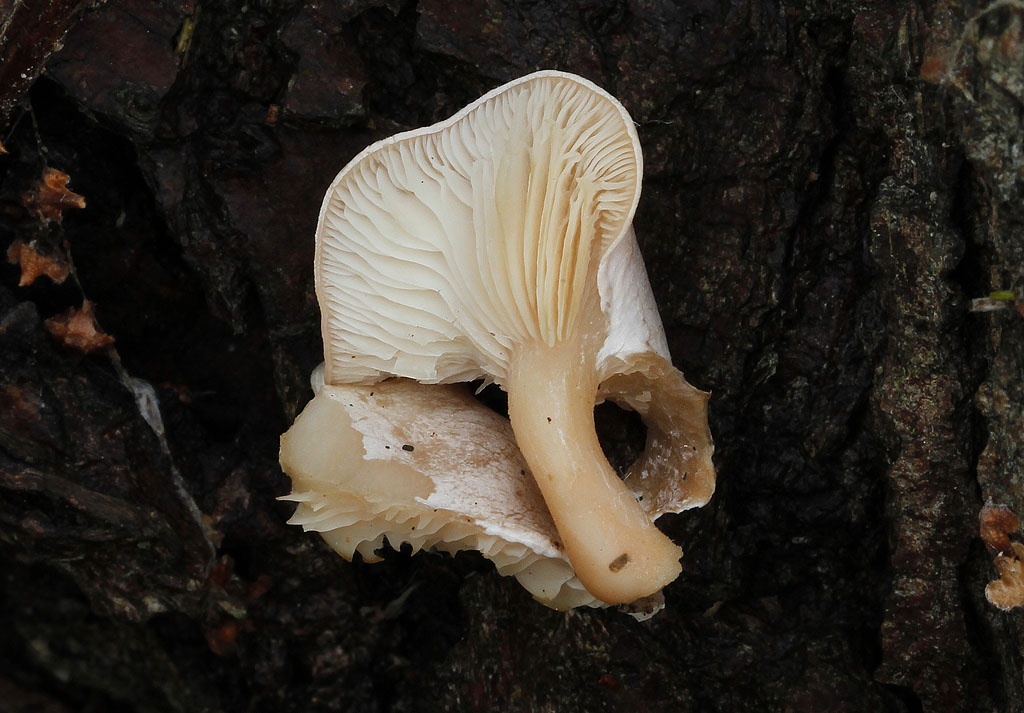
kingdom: Fungi
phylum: Basidiomycota
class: Agaricomycetes
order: Agaricales
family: Tricholomataceae
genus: Clitocybe
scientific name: Clitocybe
